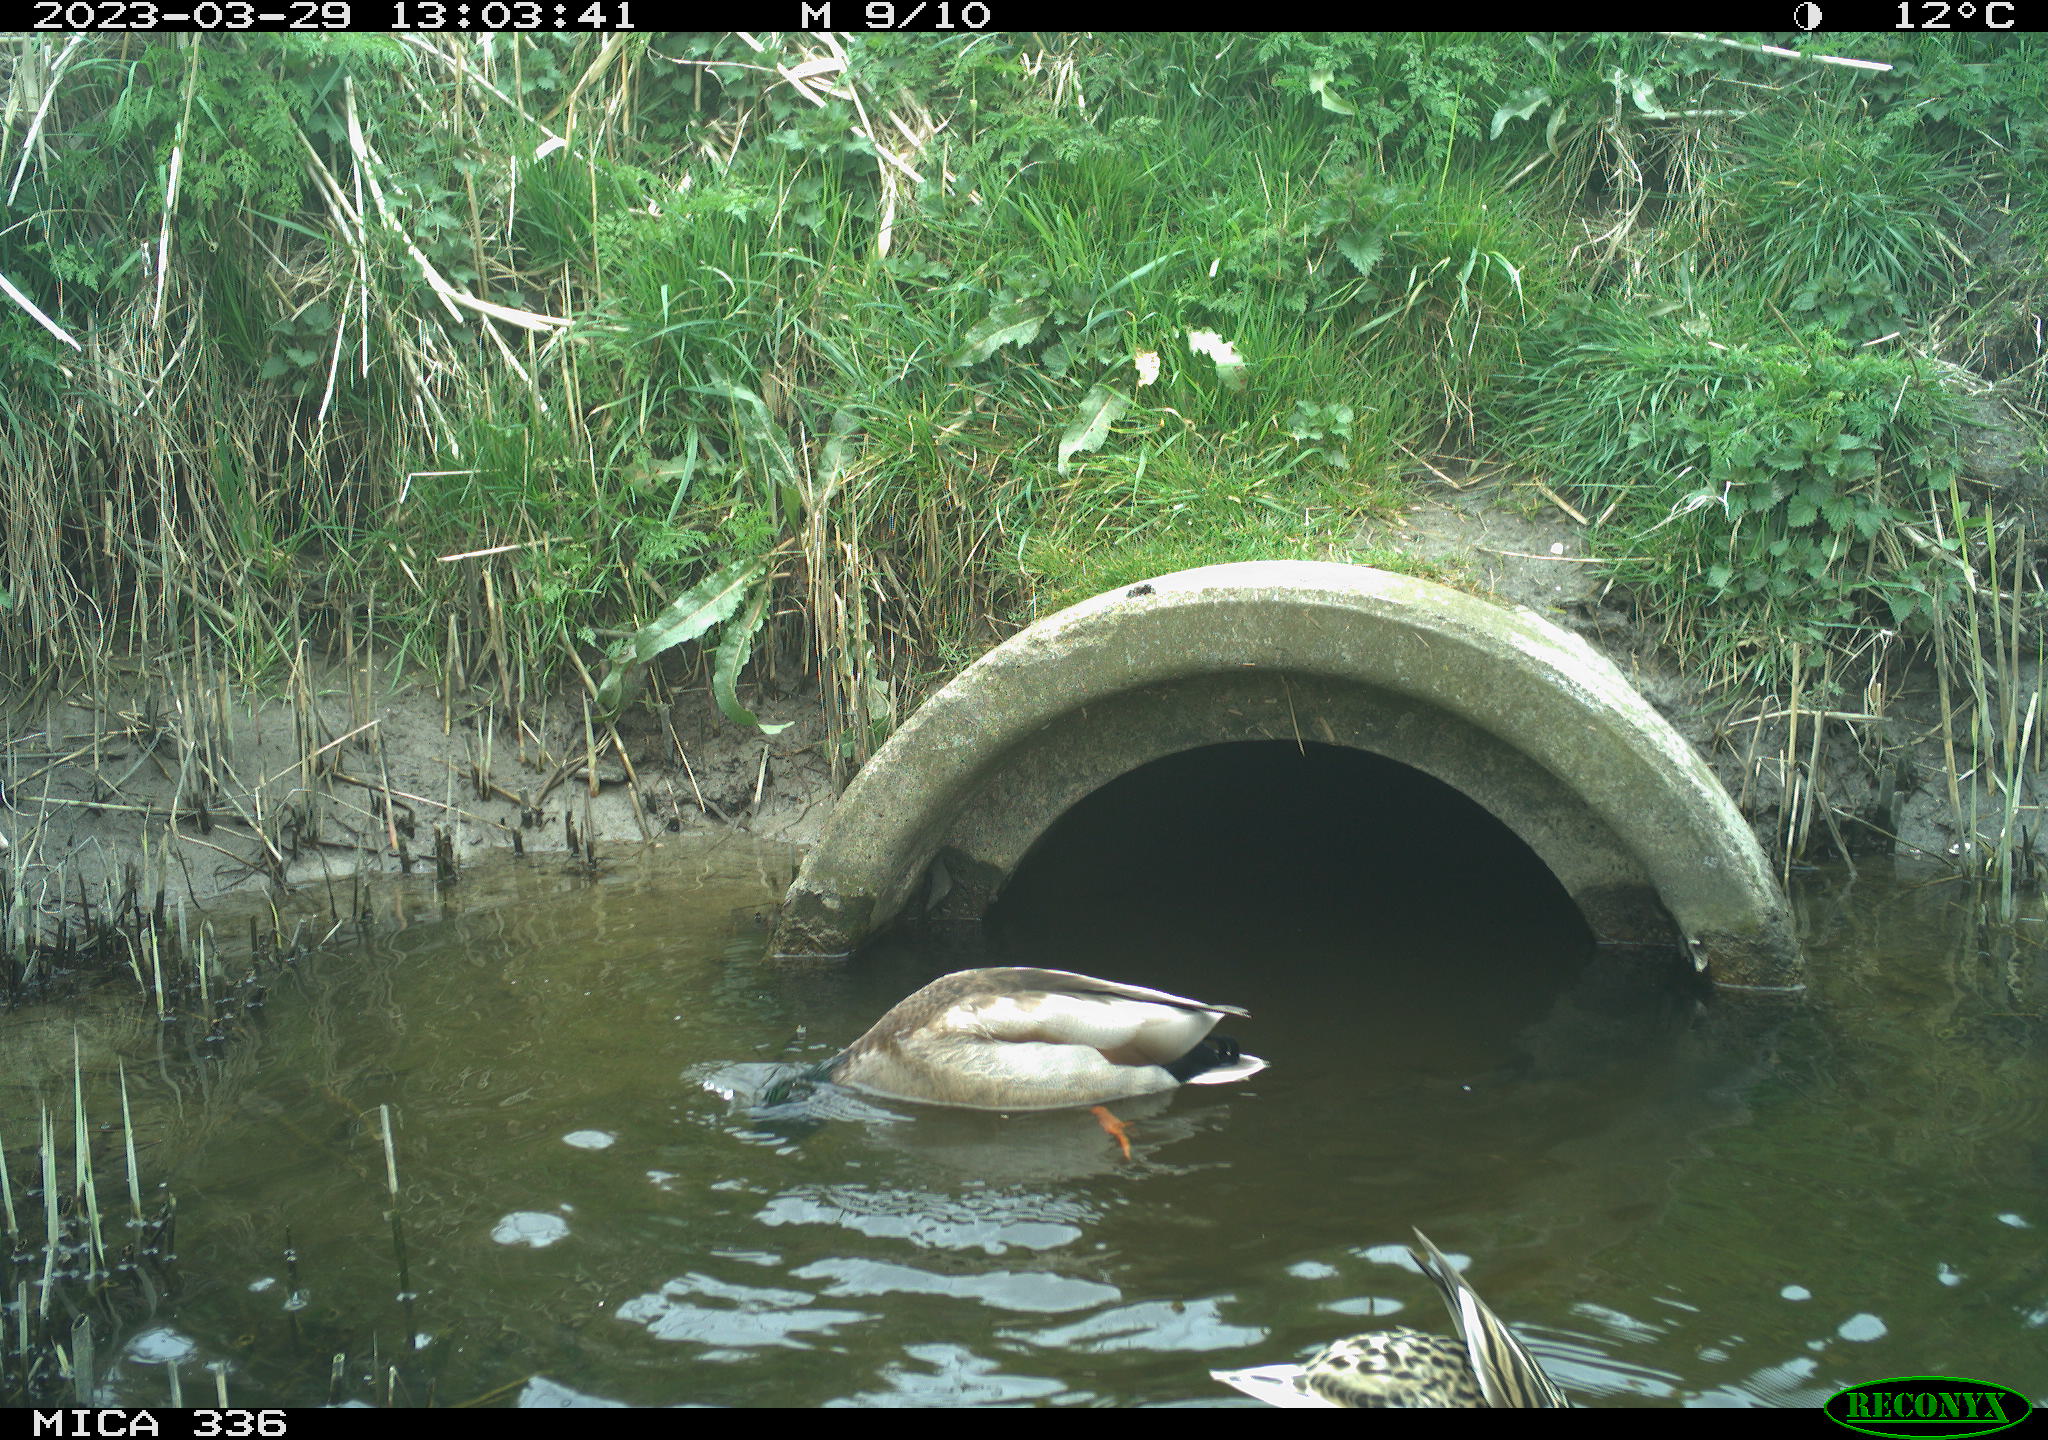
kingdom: Animalia
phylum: Chordata
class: Aves
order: Anseriformes
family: Anatidae
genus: Anas
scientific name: Anas
